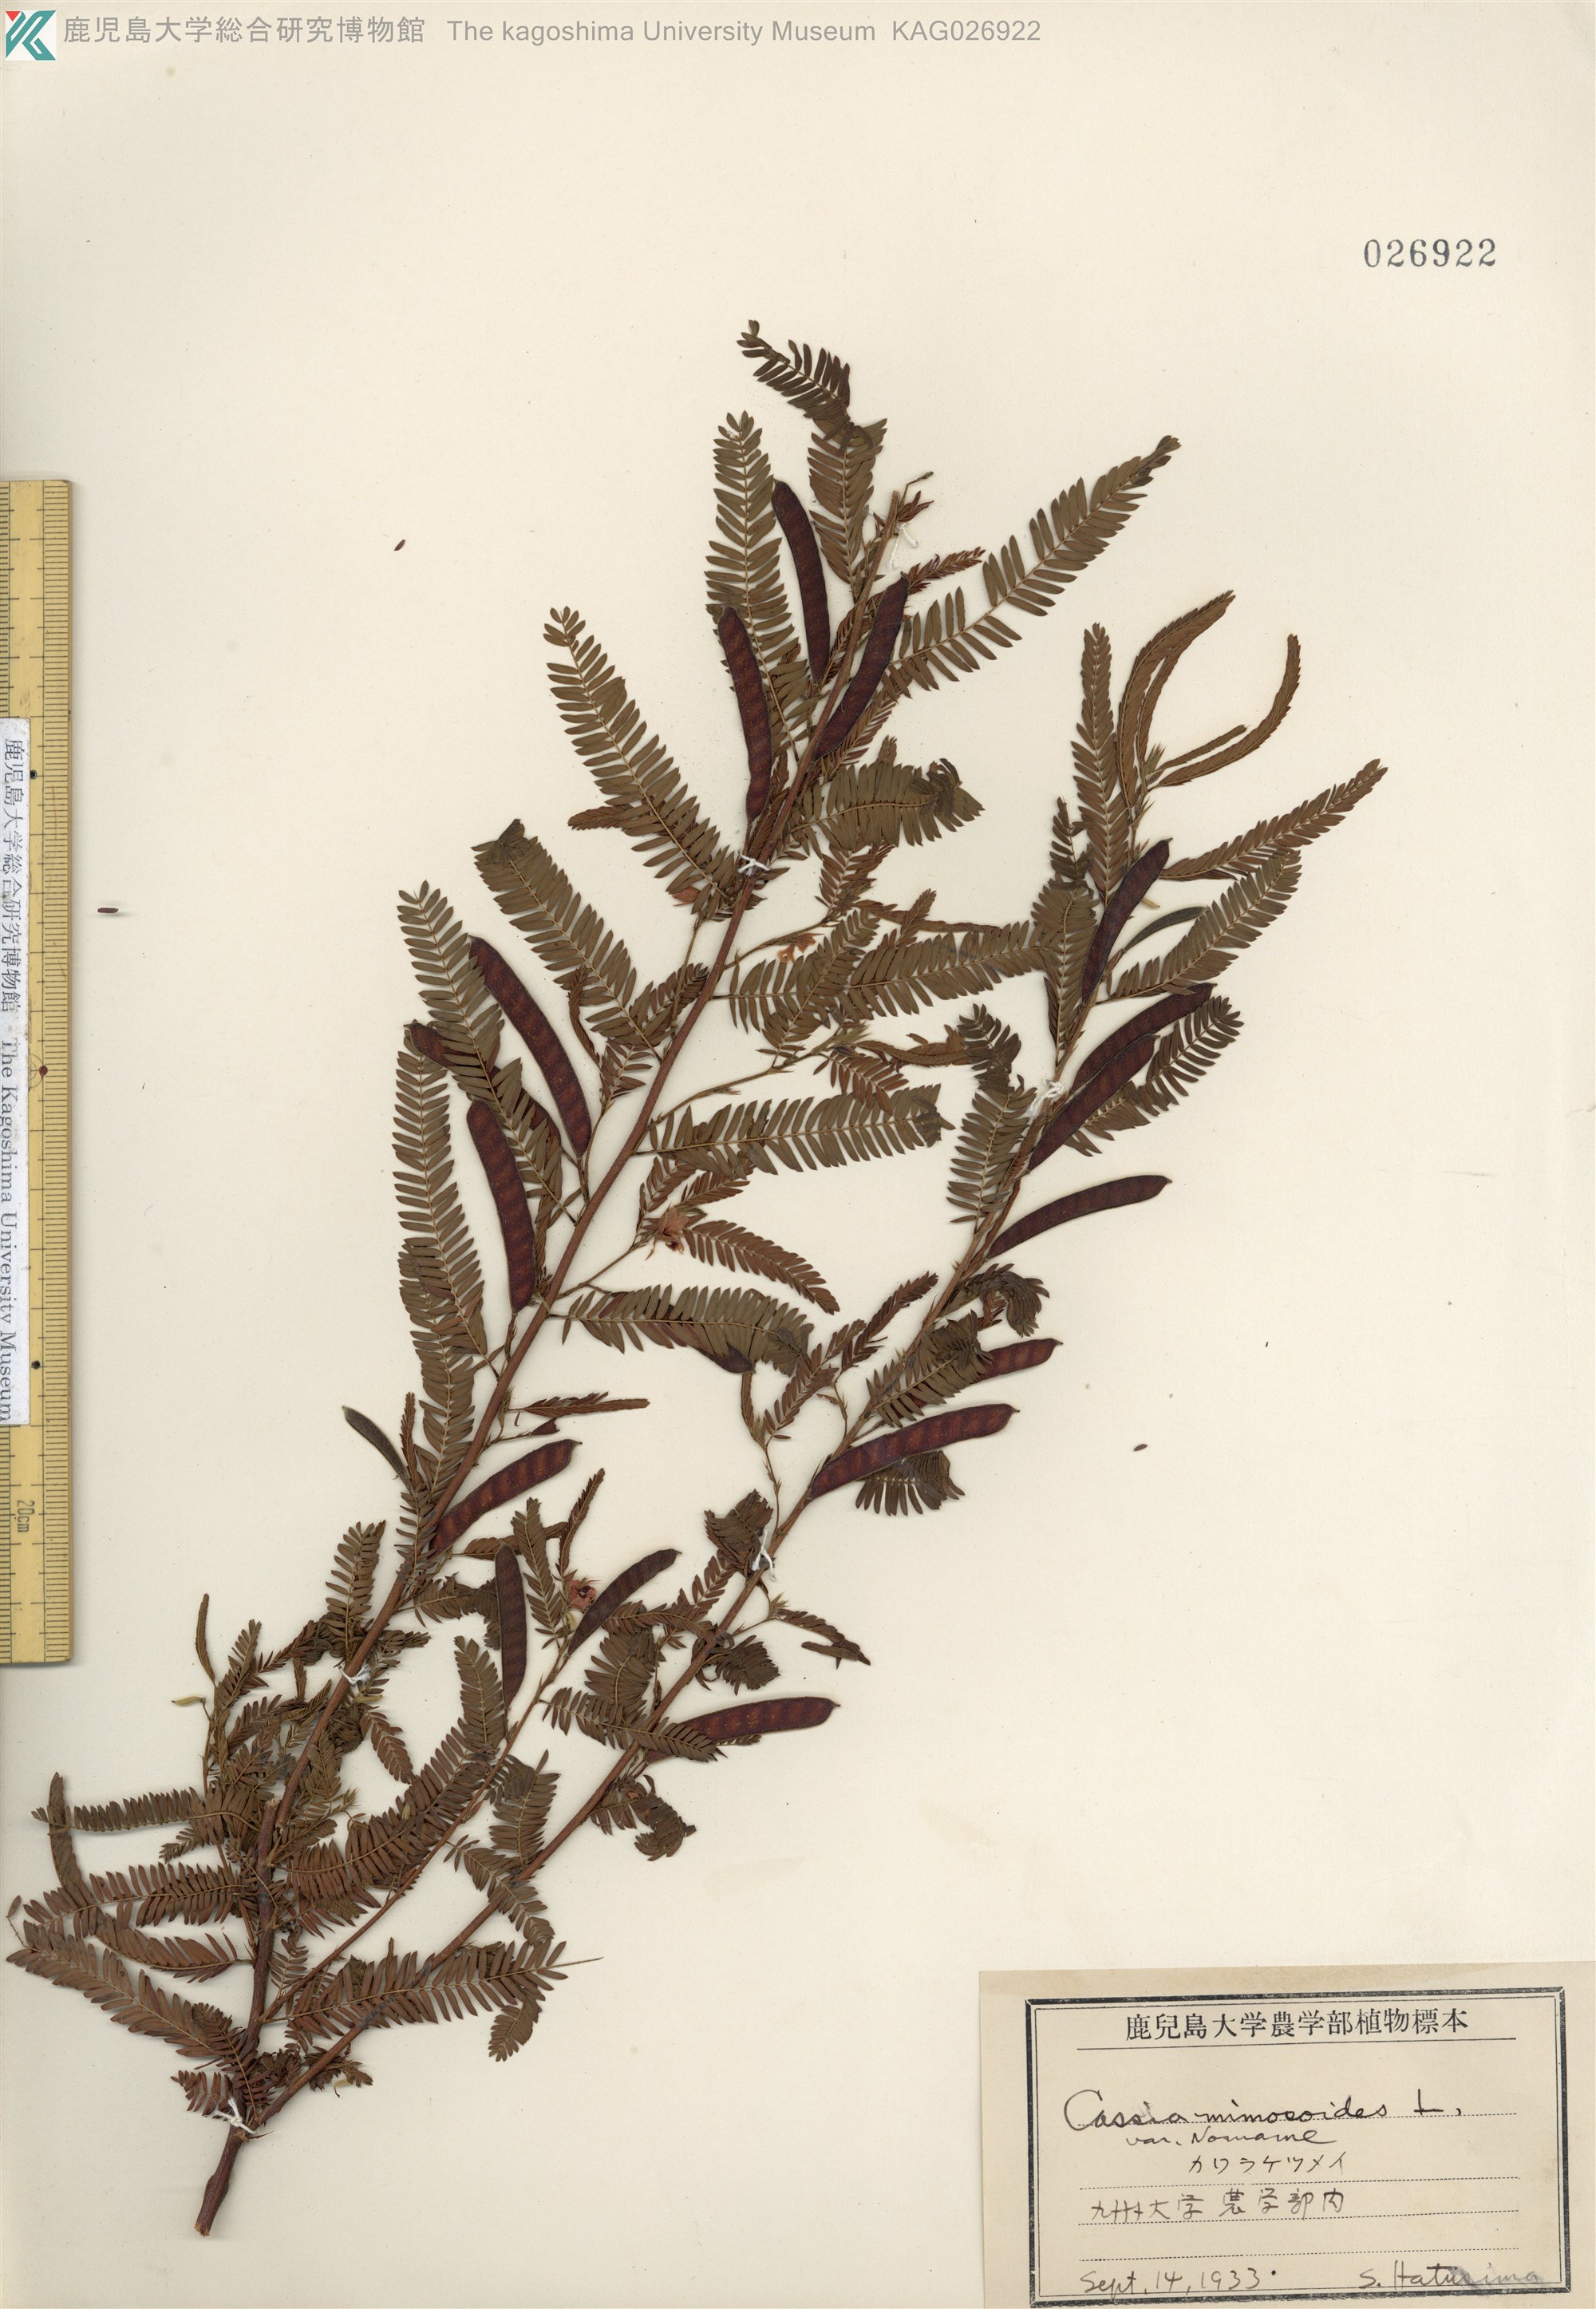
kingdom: Plantae
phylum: Tracheophyta
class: Magnoliopsida
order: Fabales
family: Fabaceae
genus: Chamaecrista
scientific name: Chamaecrista nomame
